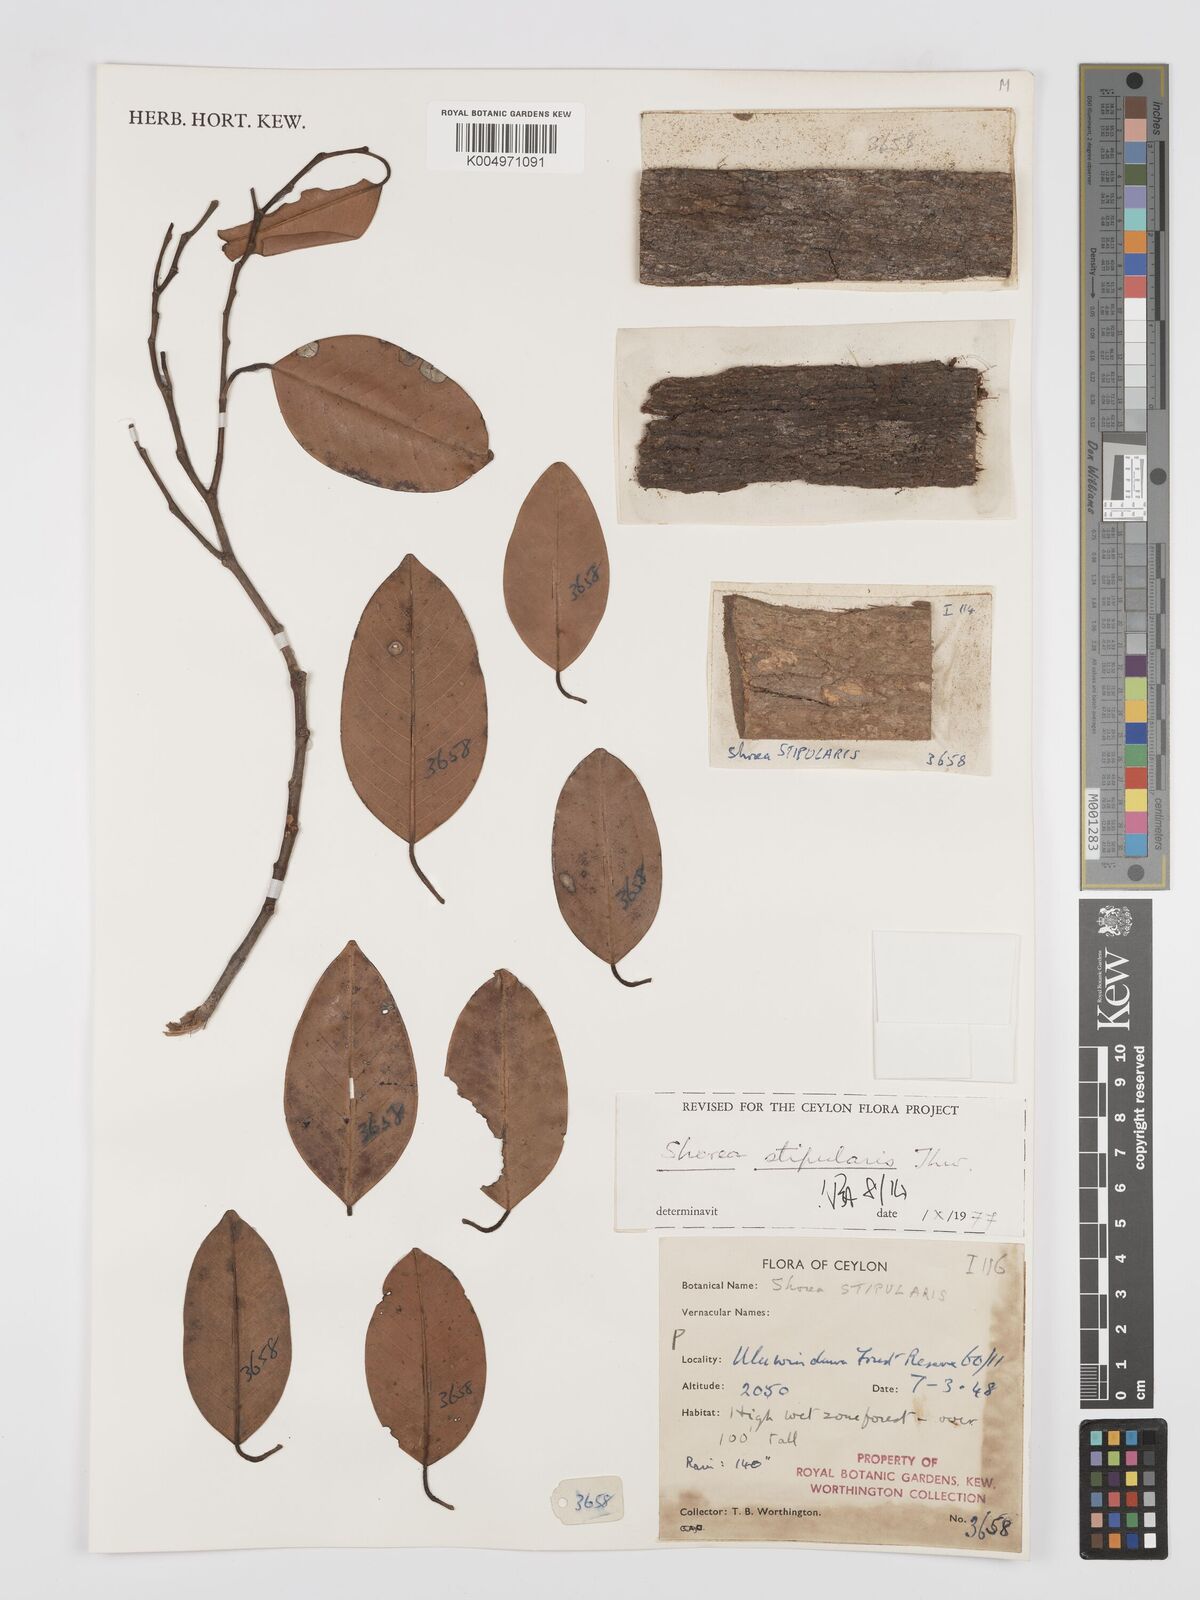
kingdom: Plantae
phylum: Tracheophyta
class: Magnoliopsida
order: Malvales
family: Dipterocarpaceae
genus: Anthoshorea
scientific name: Anthoshorea stipularis
